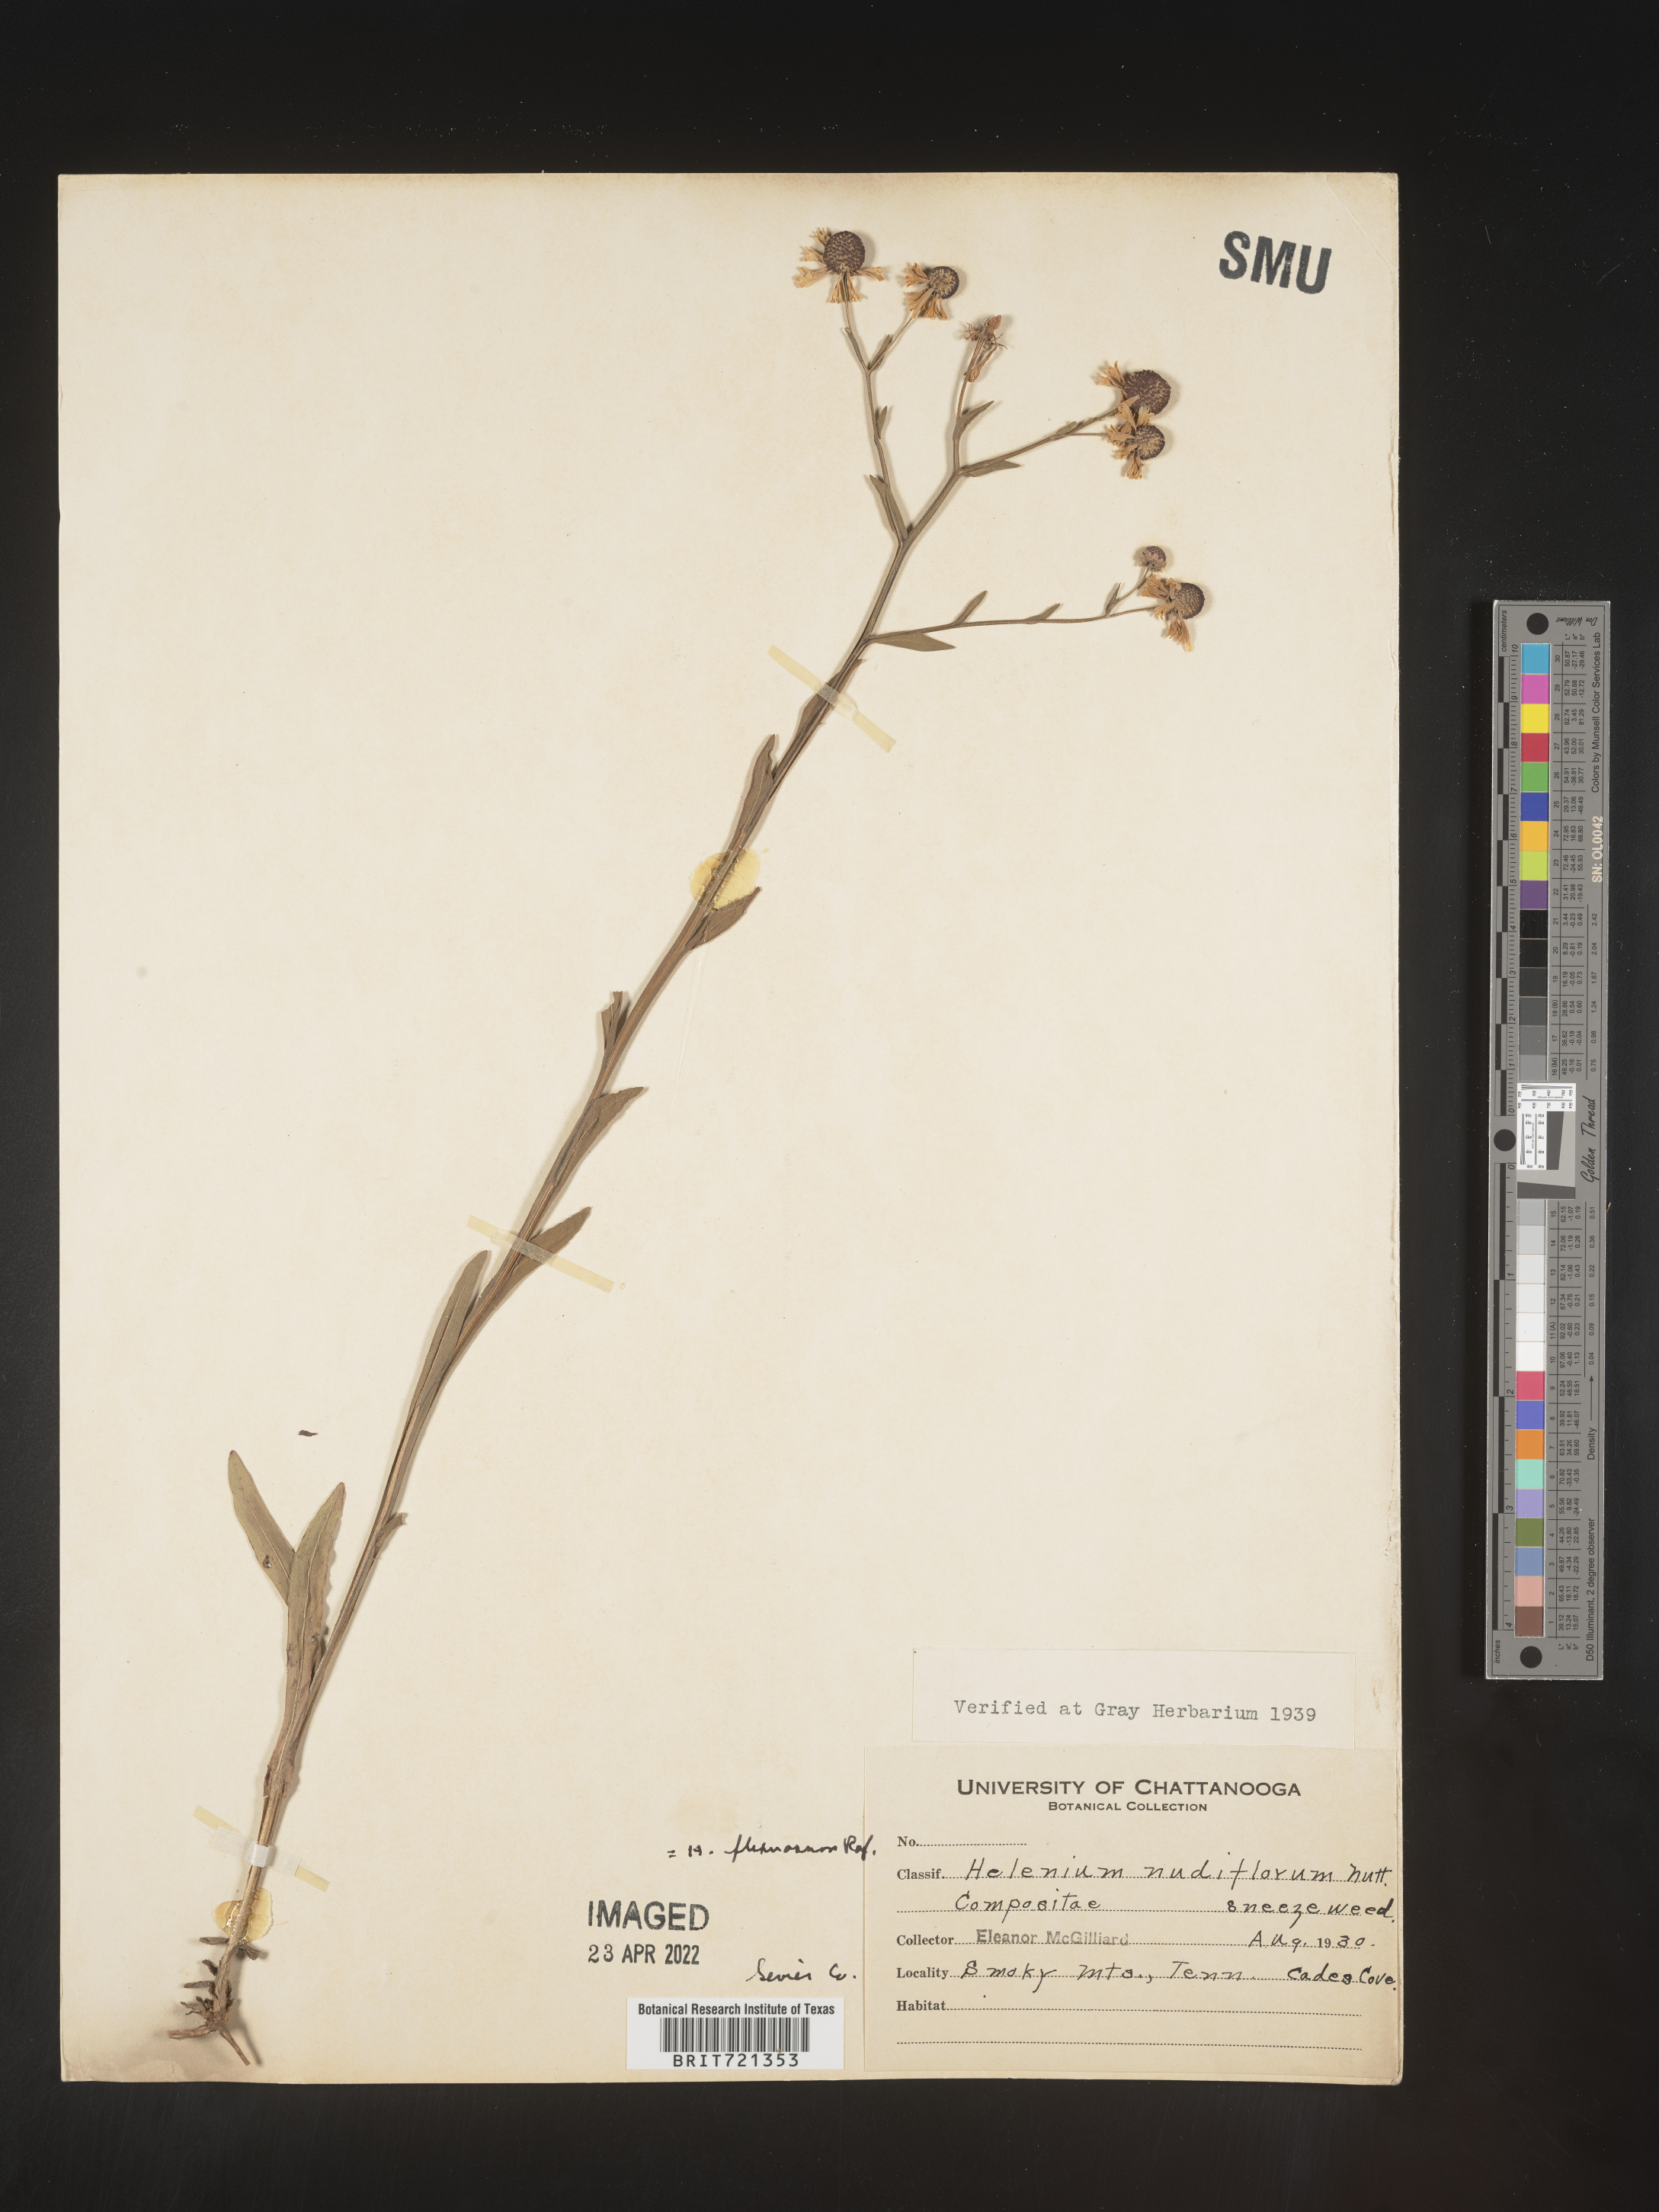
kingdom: Plantae
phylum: Tracheophyta
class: Magnoliopsida
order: Asterales
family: Asteraceae
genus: Helenium
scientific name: Helenium flexuosum
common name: Naked-flowered sneezeweed
